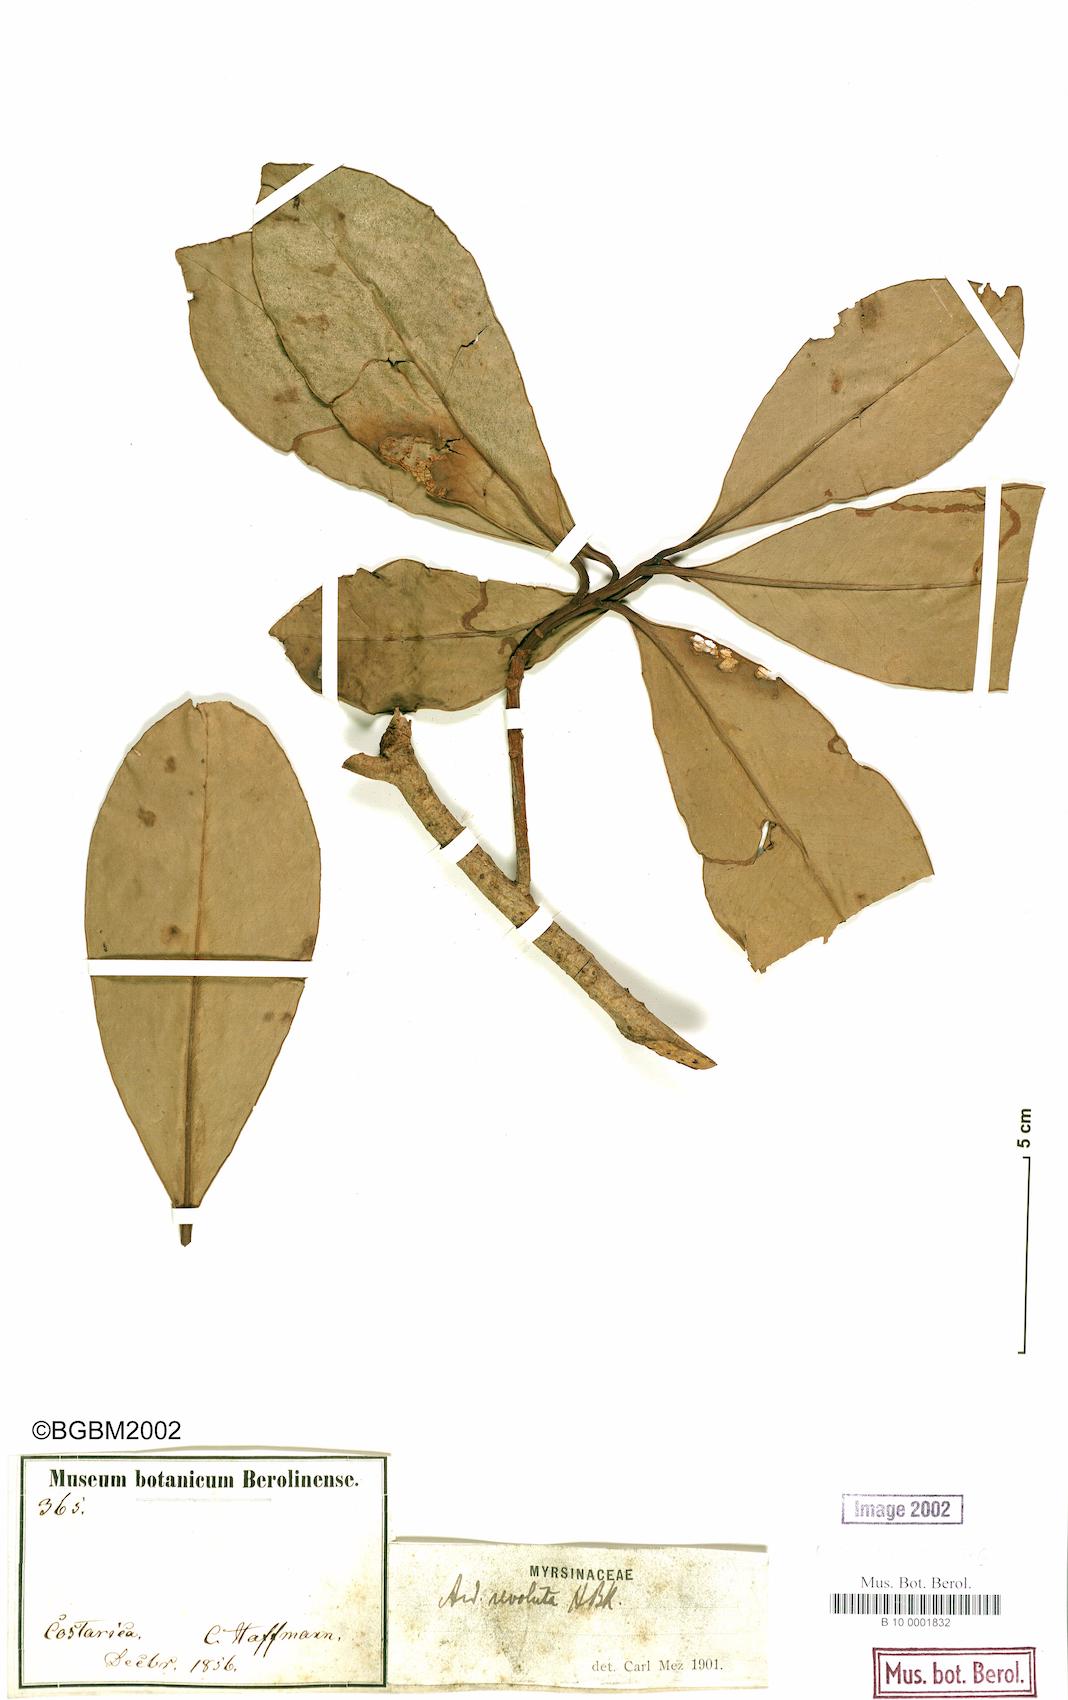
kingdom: Plantae
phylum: Tracheophyta
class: Magnoliopsida
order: Ericales
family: Primulaceae
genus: Ardisia
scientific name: Ardisia revoluta
